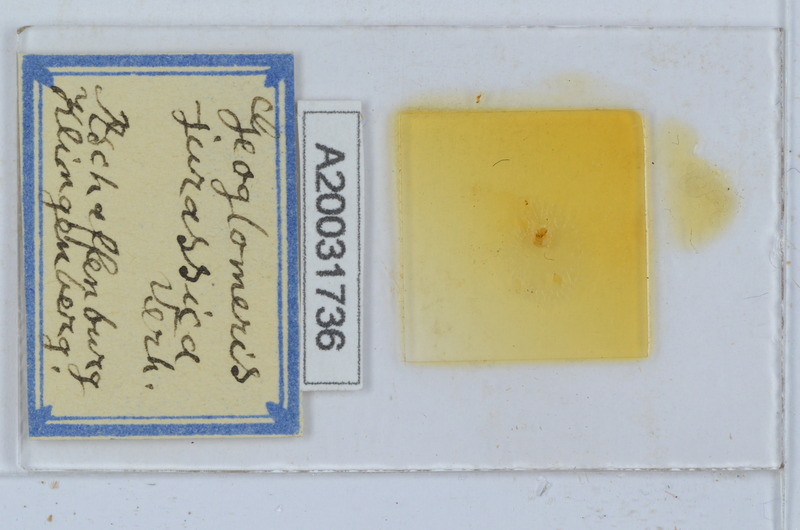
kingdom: Animalia
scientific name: Animalia
